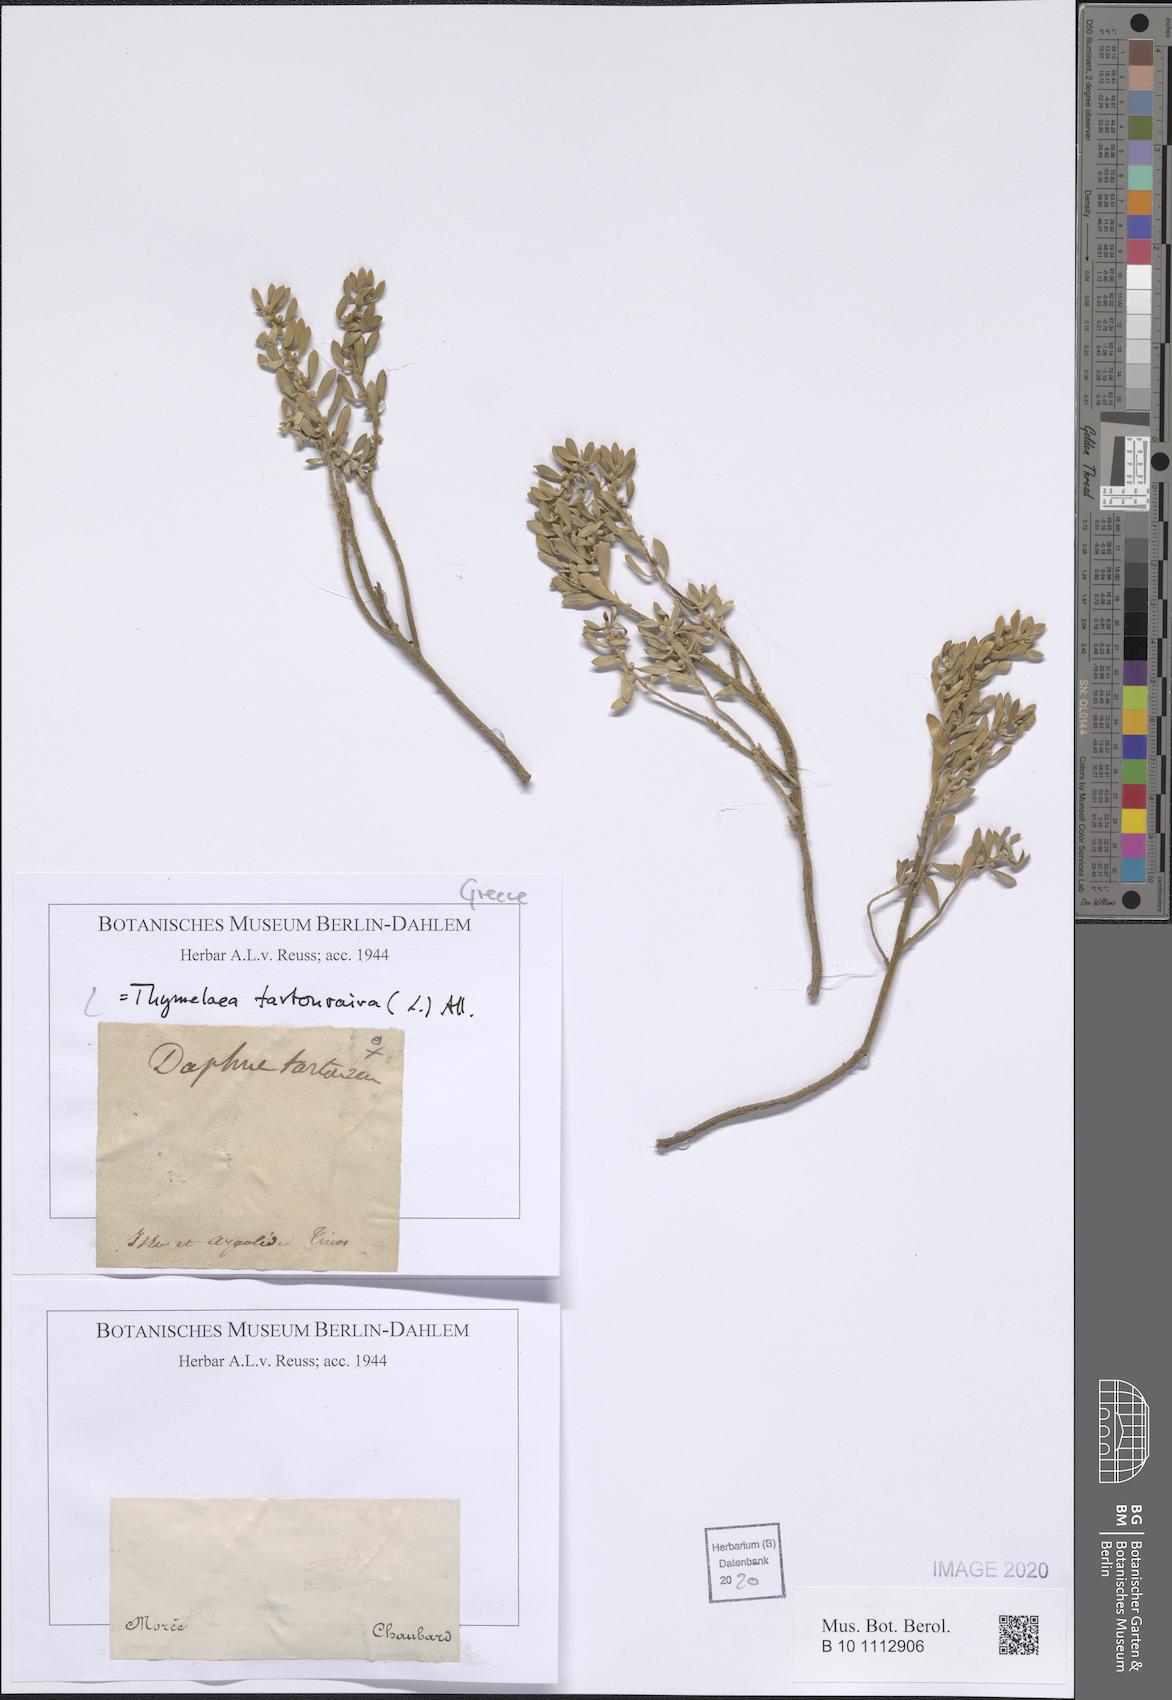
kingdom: Plantae
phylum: Tracheophyta
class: Magnoliopsida
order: Malvales
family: Thymelaeaceae
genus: Thymelaea
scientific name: Thymelaea tartonraira
